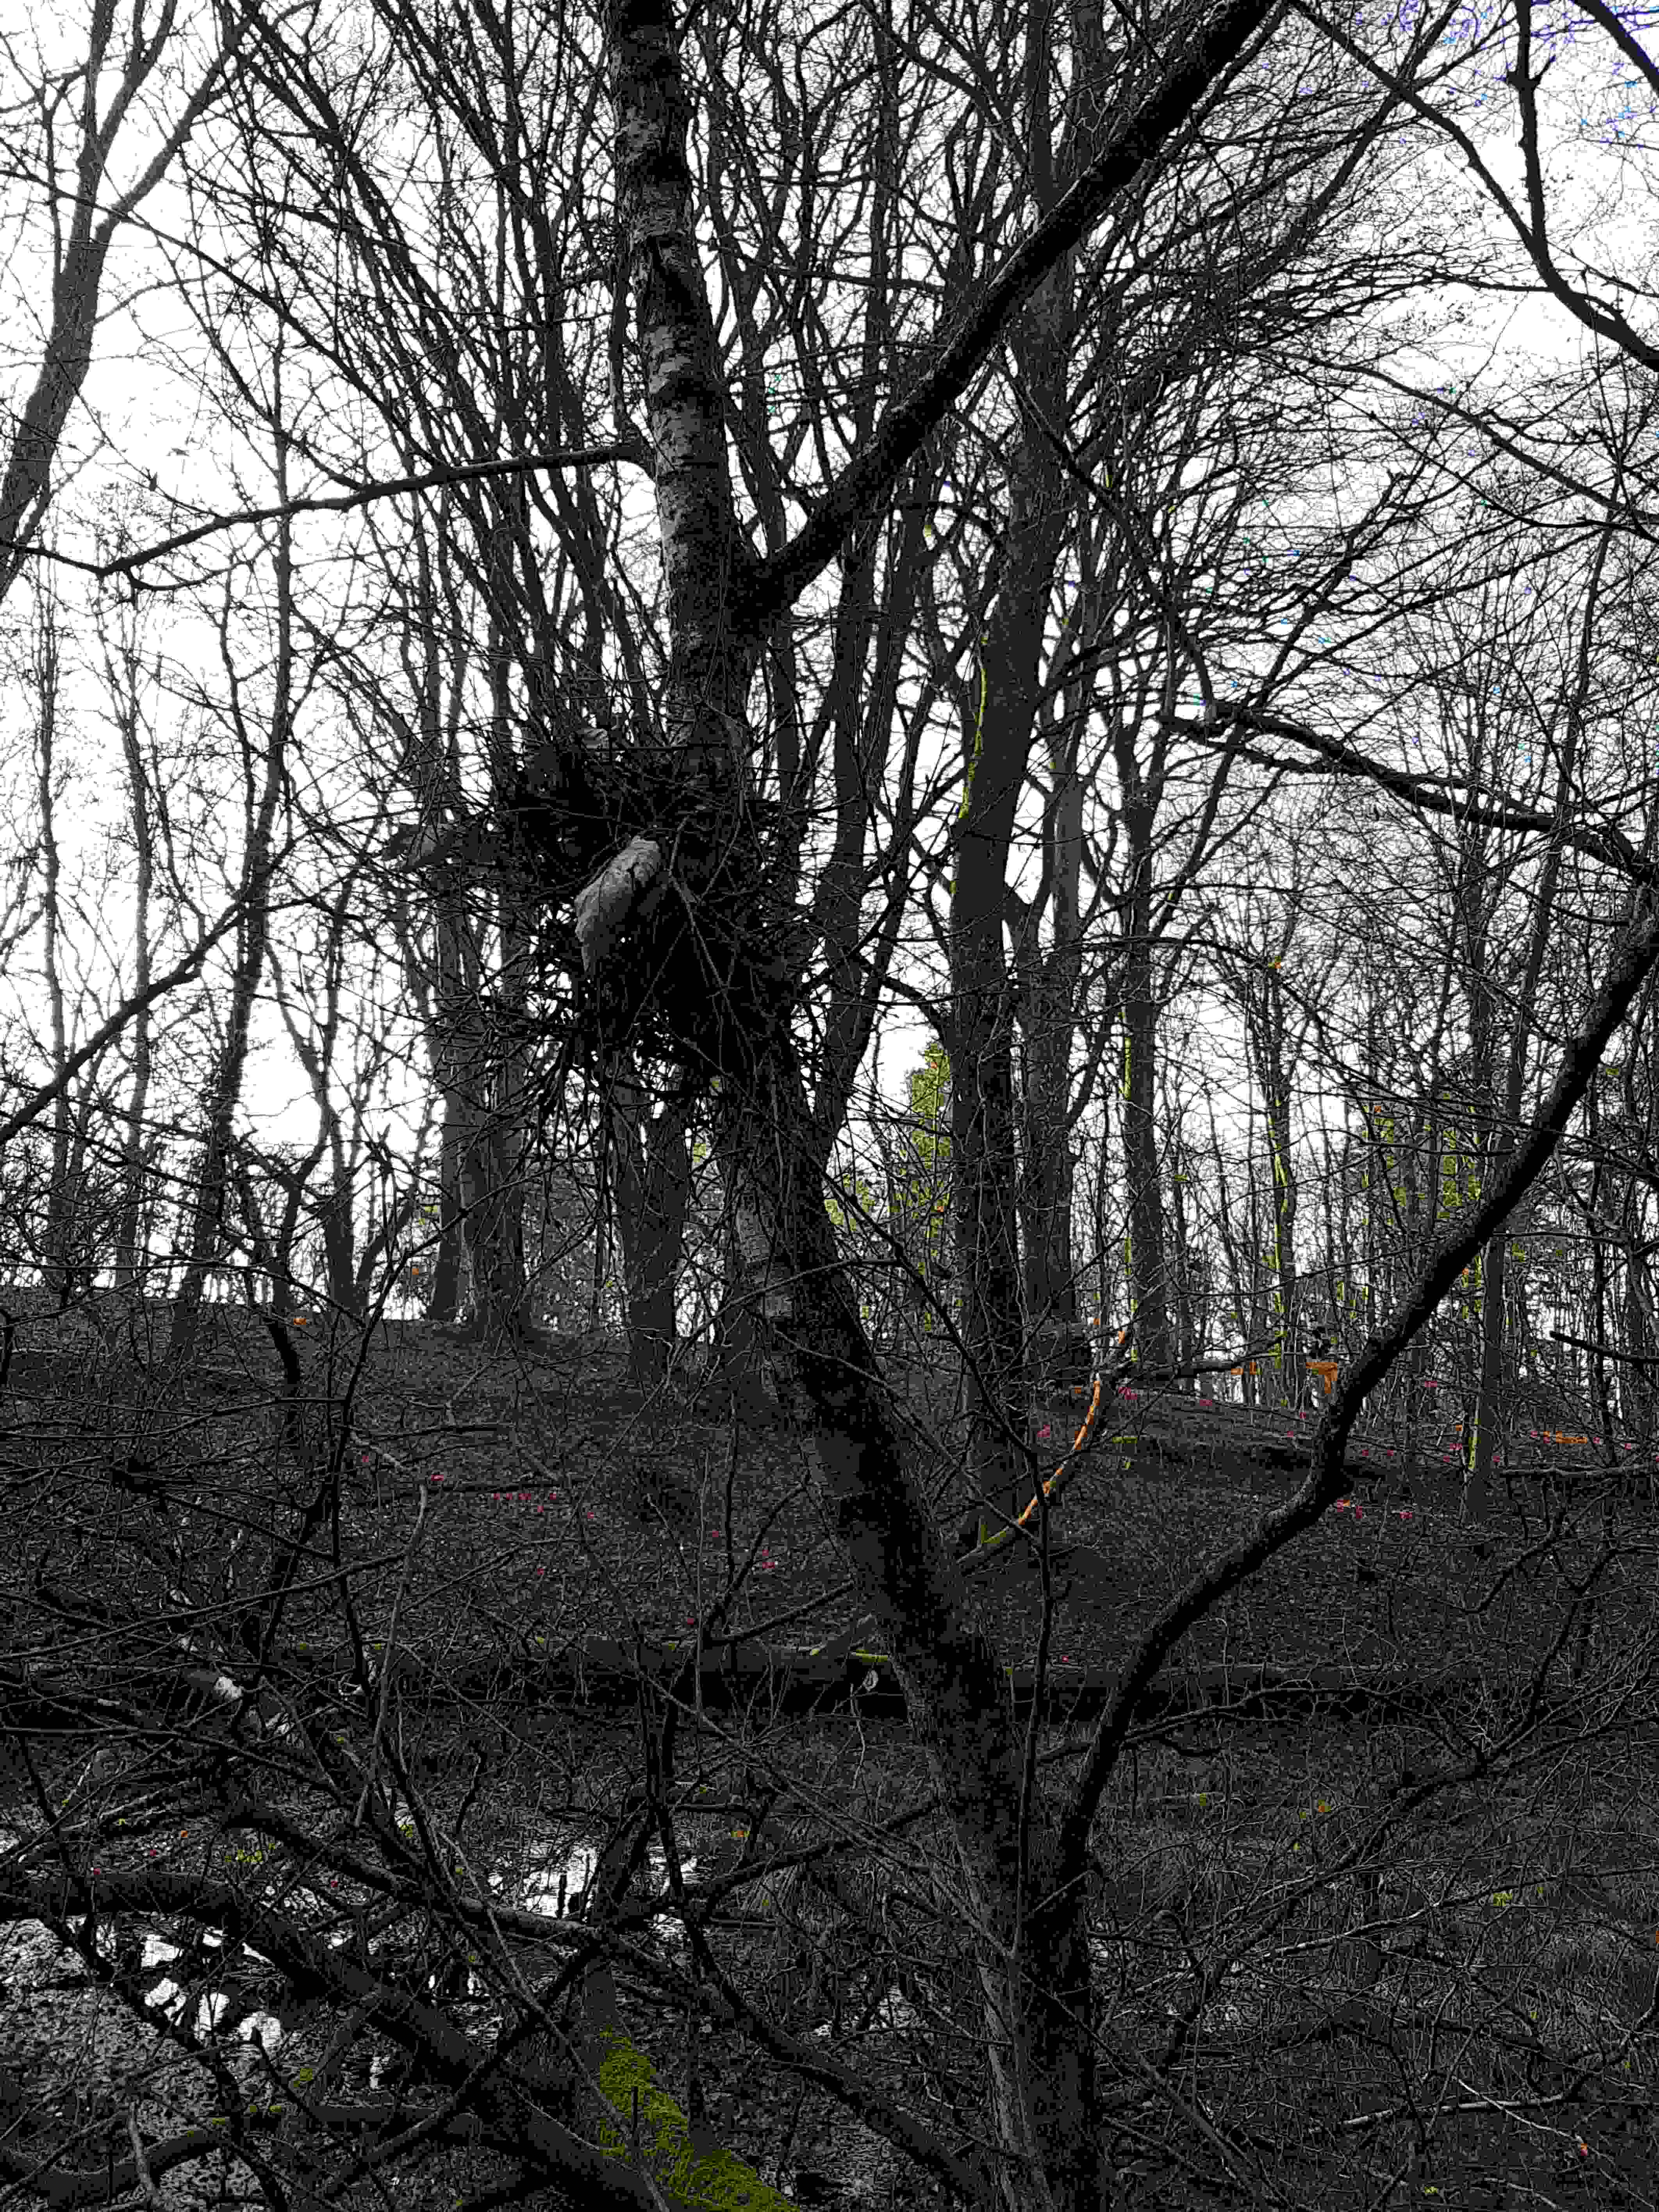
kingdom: Fungi
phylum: Ascomycota
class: Taphrinomycetes
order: Taphrinales
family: Taphrinaceae
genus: Taphrina
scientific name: Taphrina betulina
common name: hekse-sækdug
